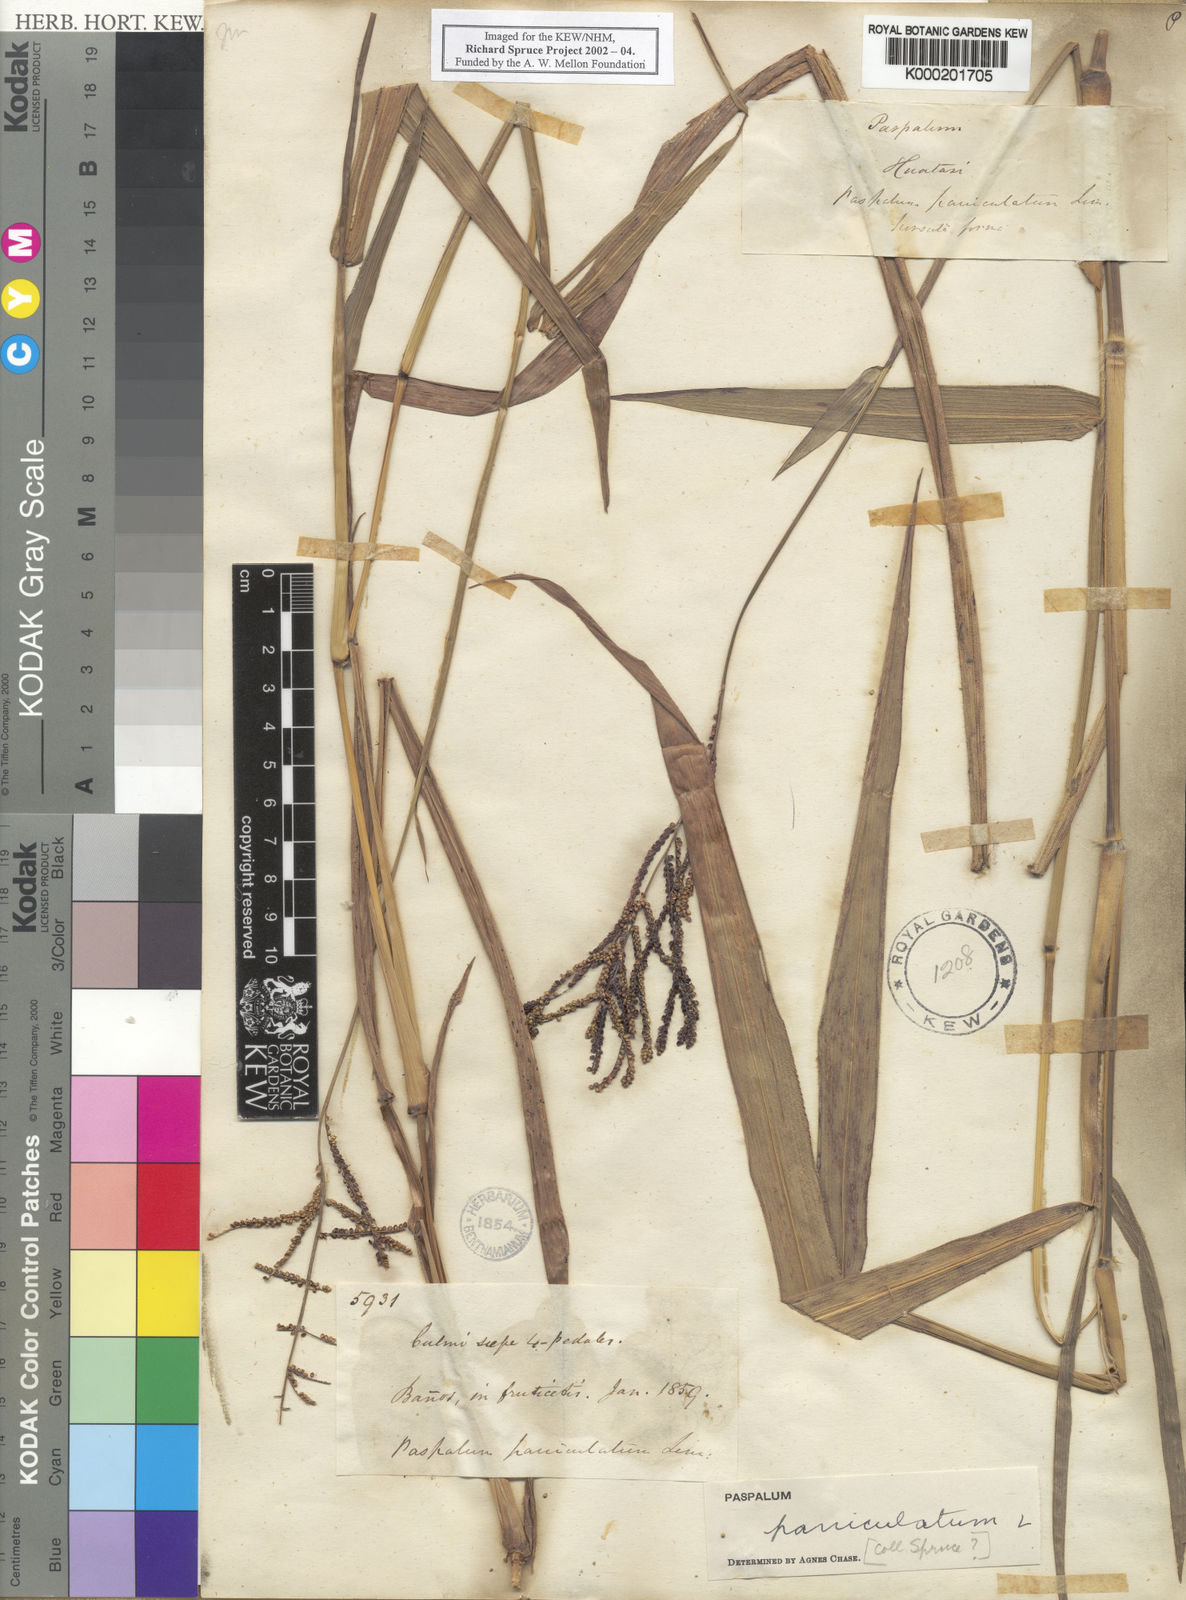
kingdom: Plantae
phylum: Tracheophyta
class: Liliopsida
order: Poales
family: Poaceae
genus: Paspalum
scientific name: Paspalum paniculatum
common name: Arrocillo
